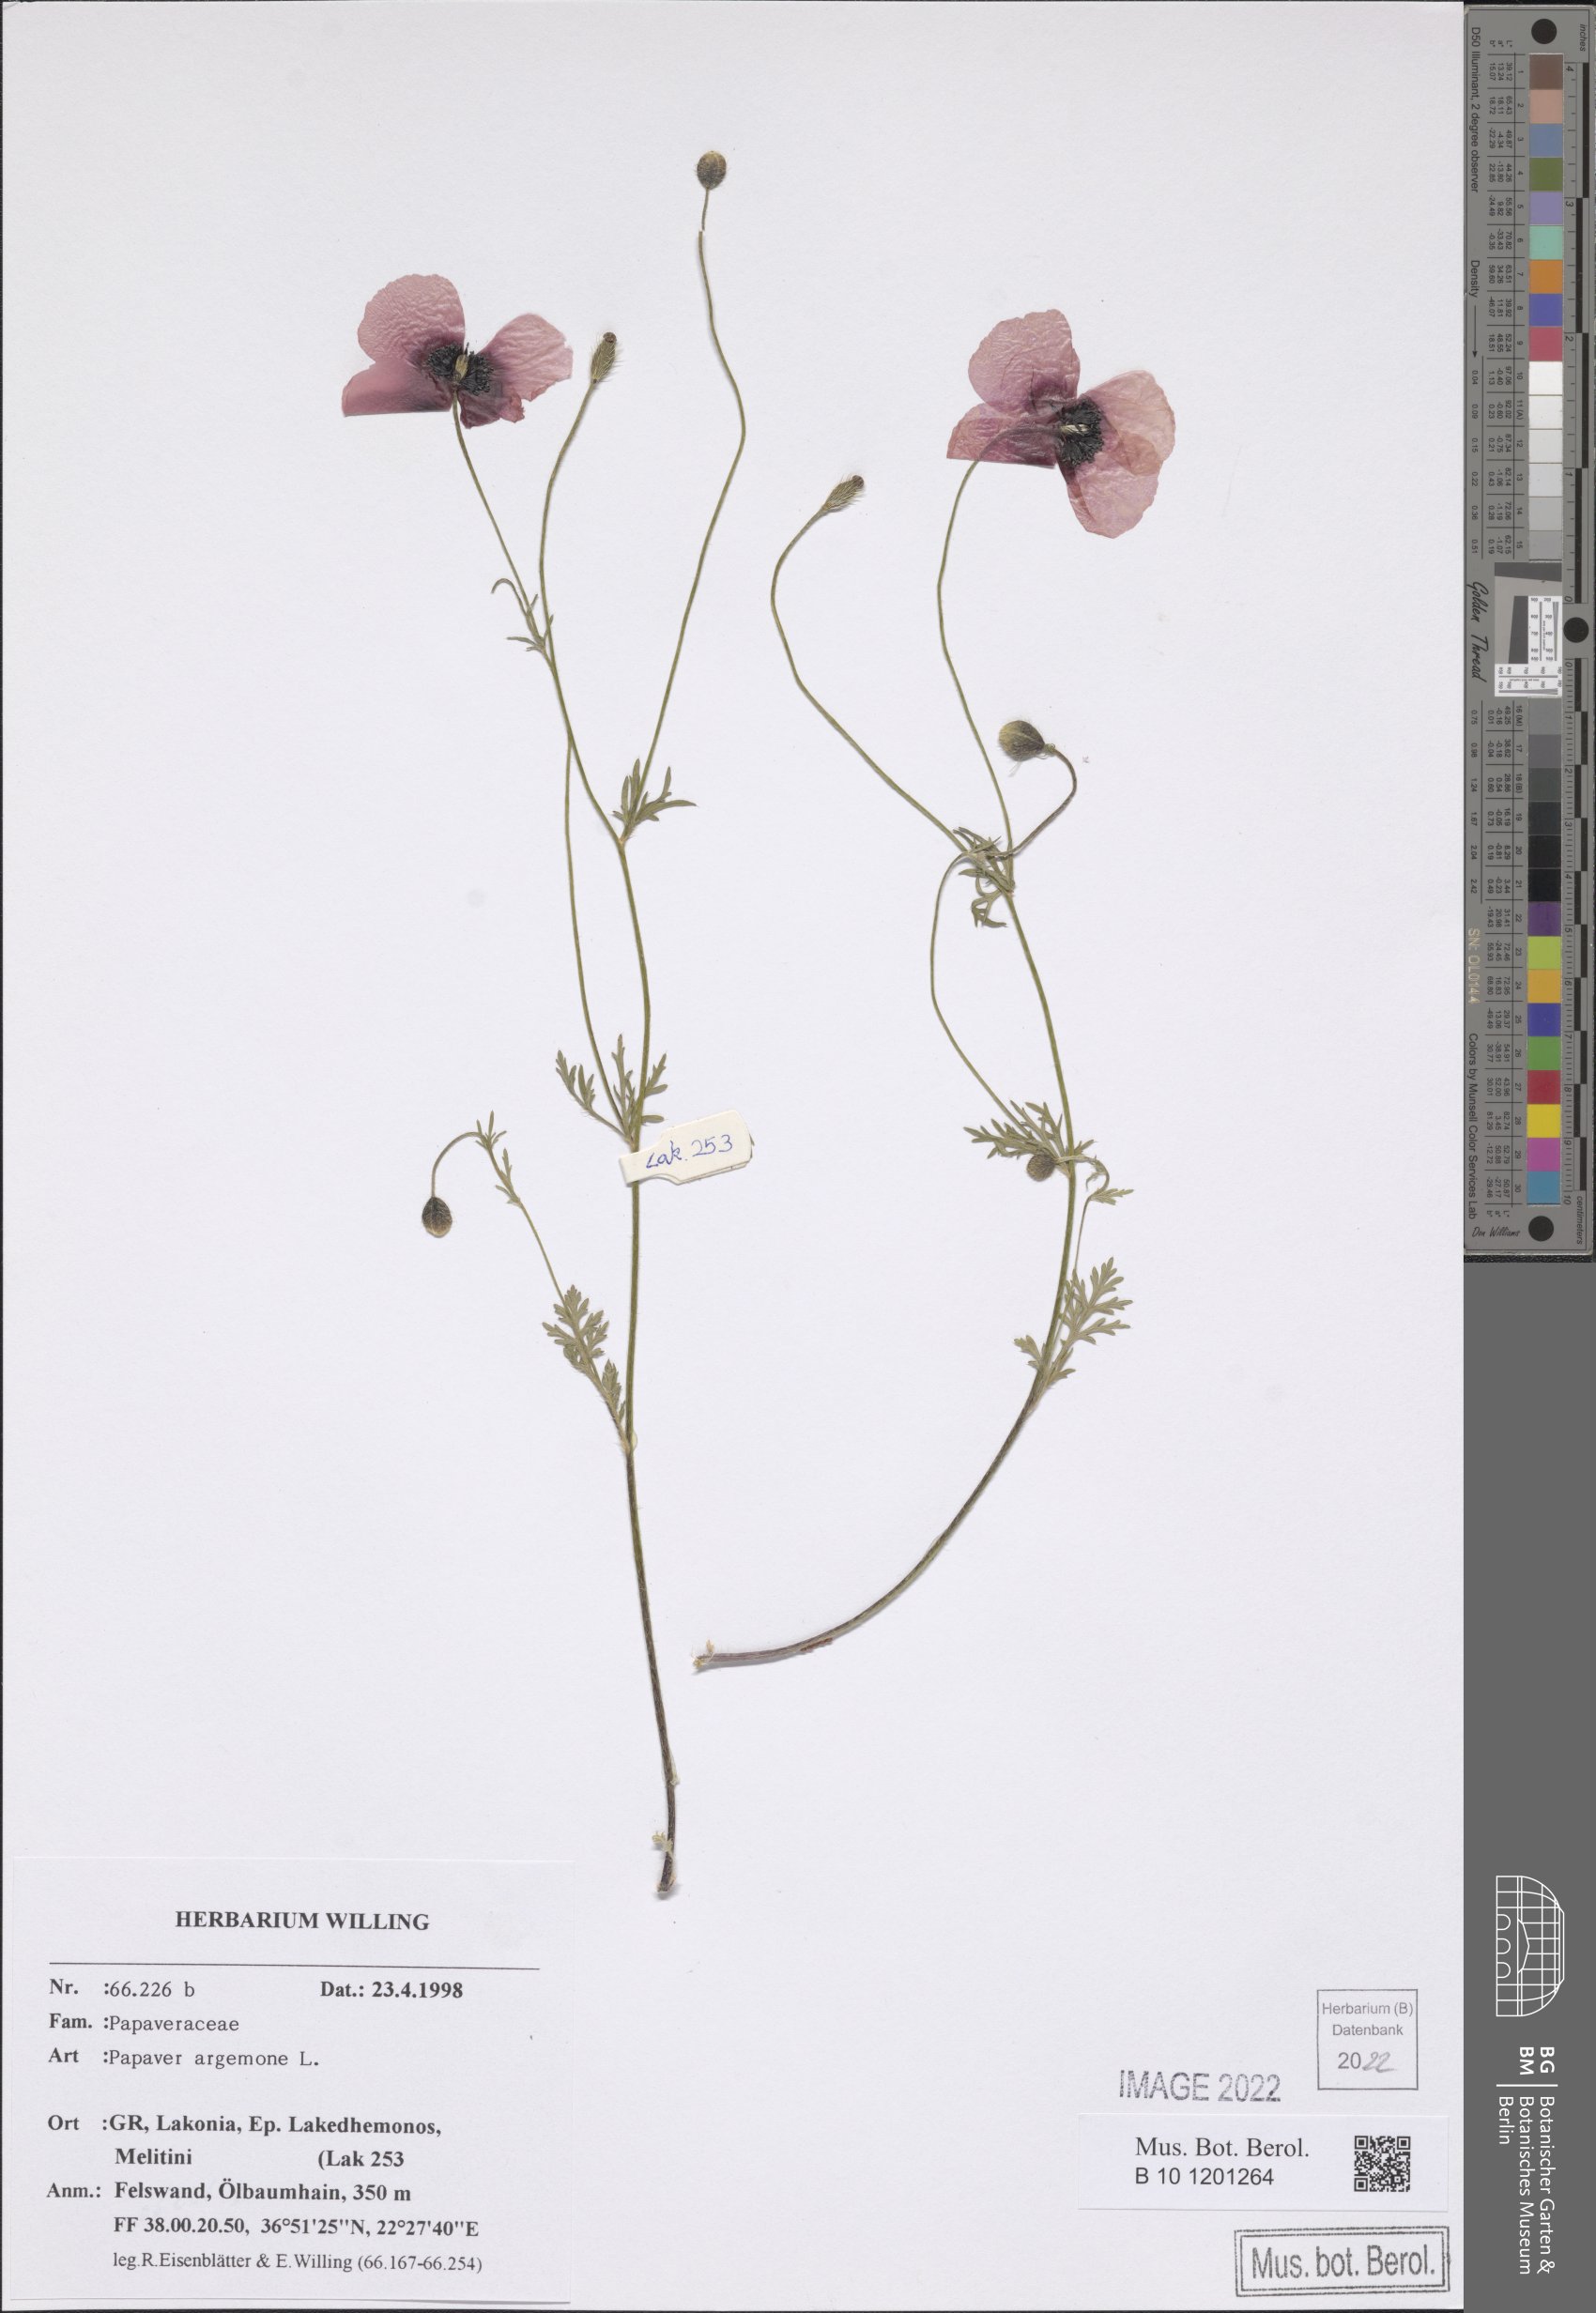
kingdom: Plantae
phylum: Tracheophyta
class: Magnoliopsida
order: Ranunculales
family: Papaveraceae
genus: Roemeria
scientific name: Roemeria argemone
